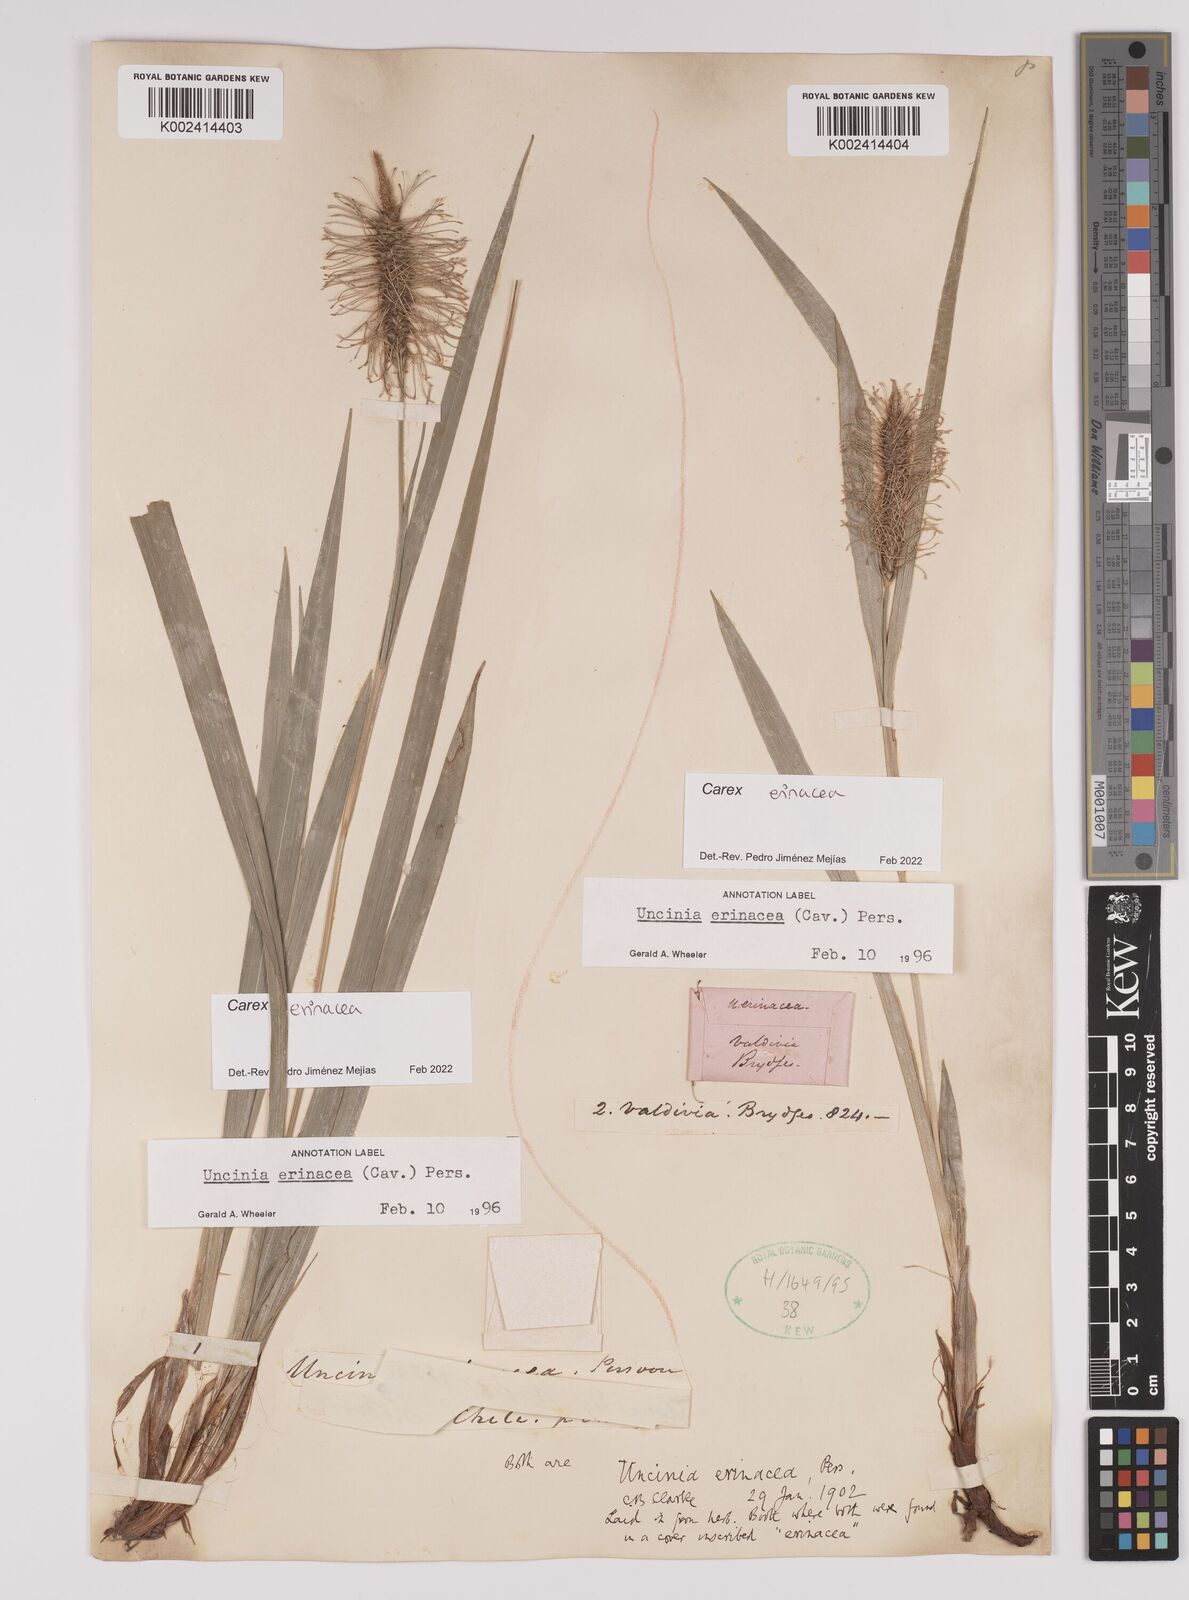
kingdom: Plantae
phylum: Tracheophyta
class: Liliopsida
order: Poales
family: Cyperaceae
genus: Carex
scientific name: Carex erinacea
